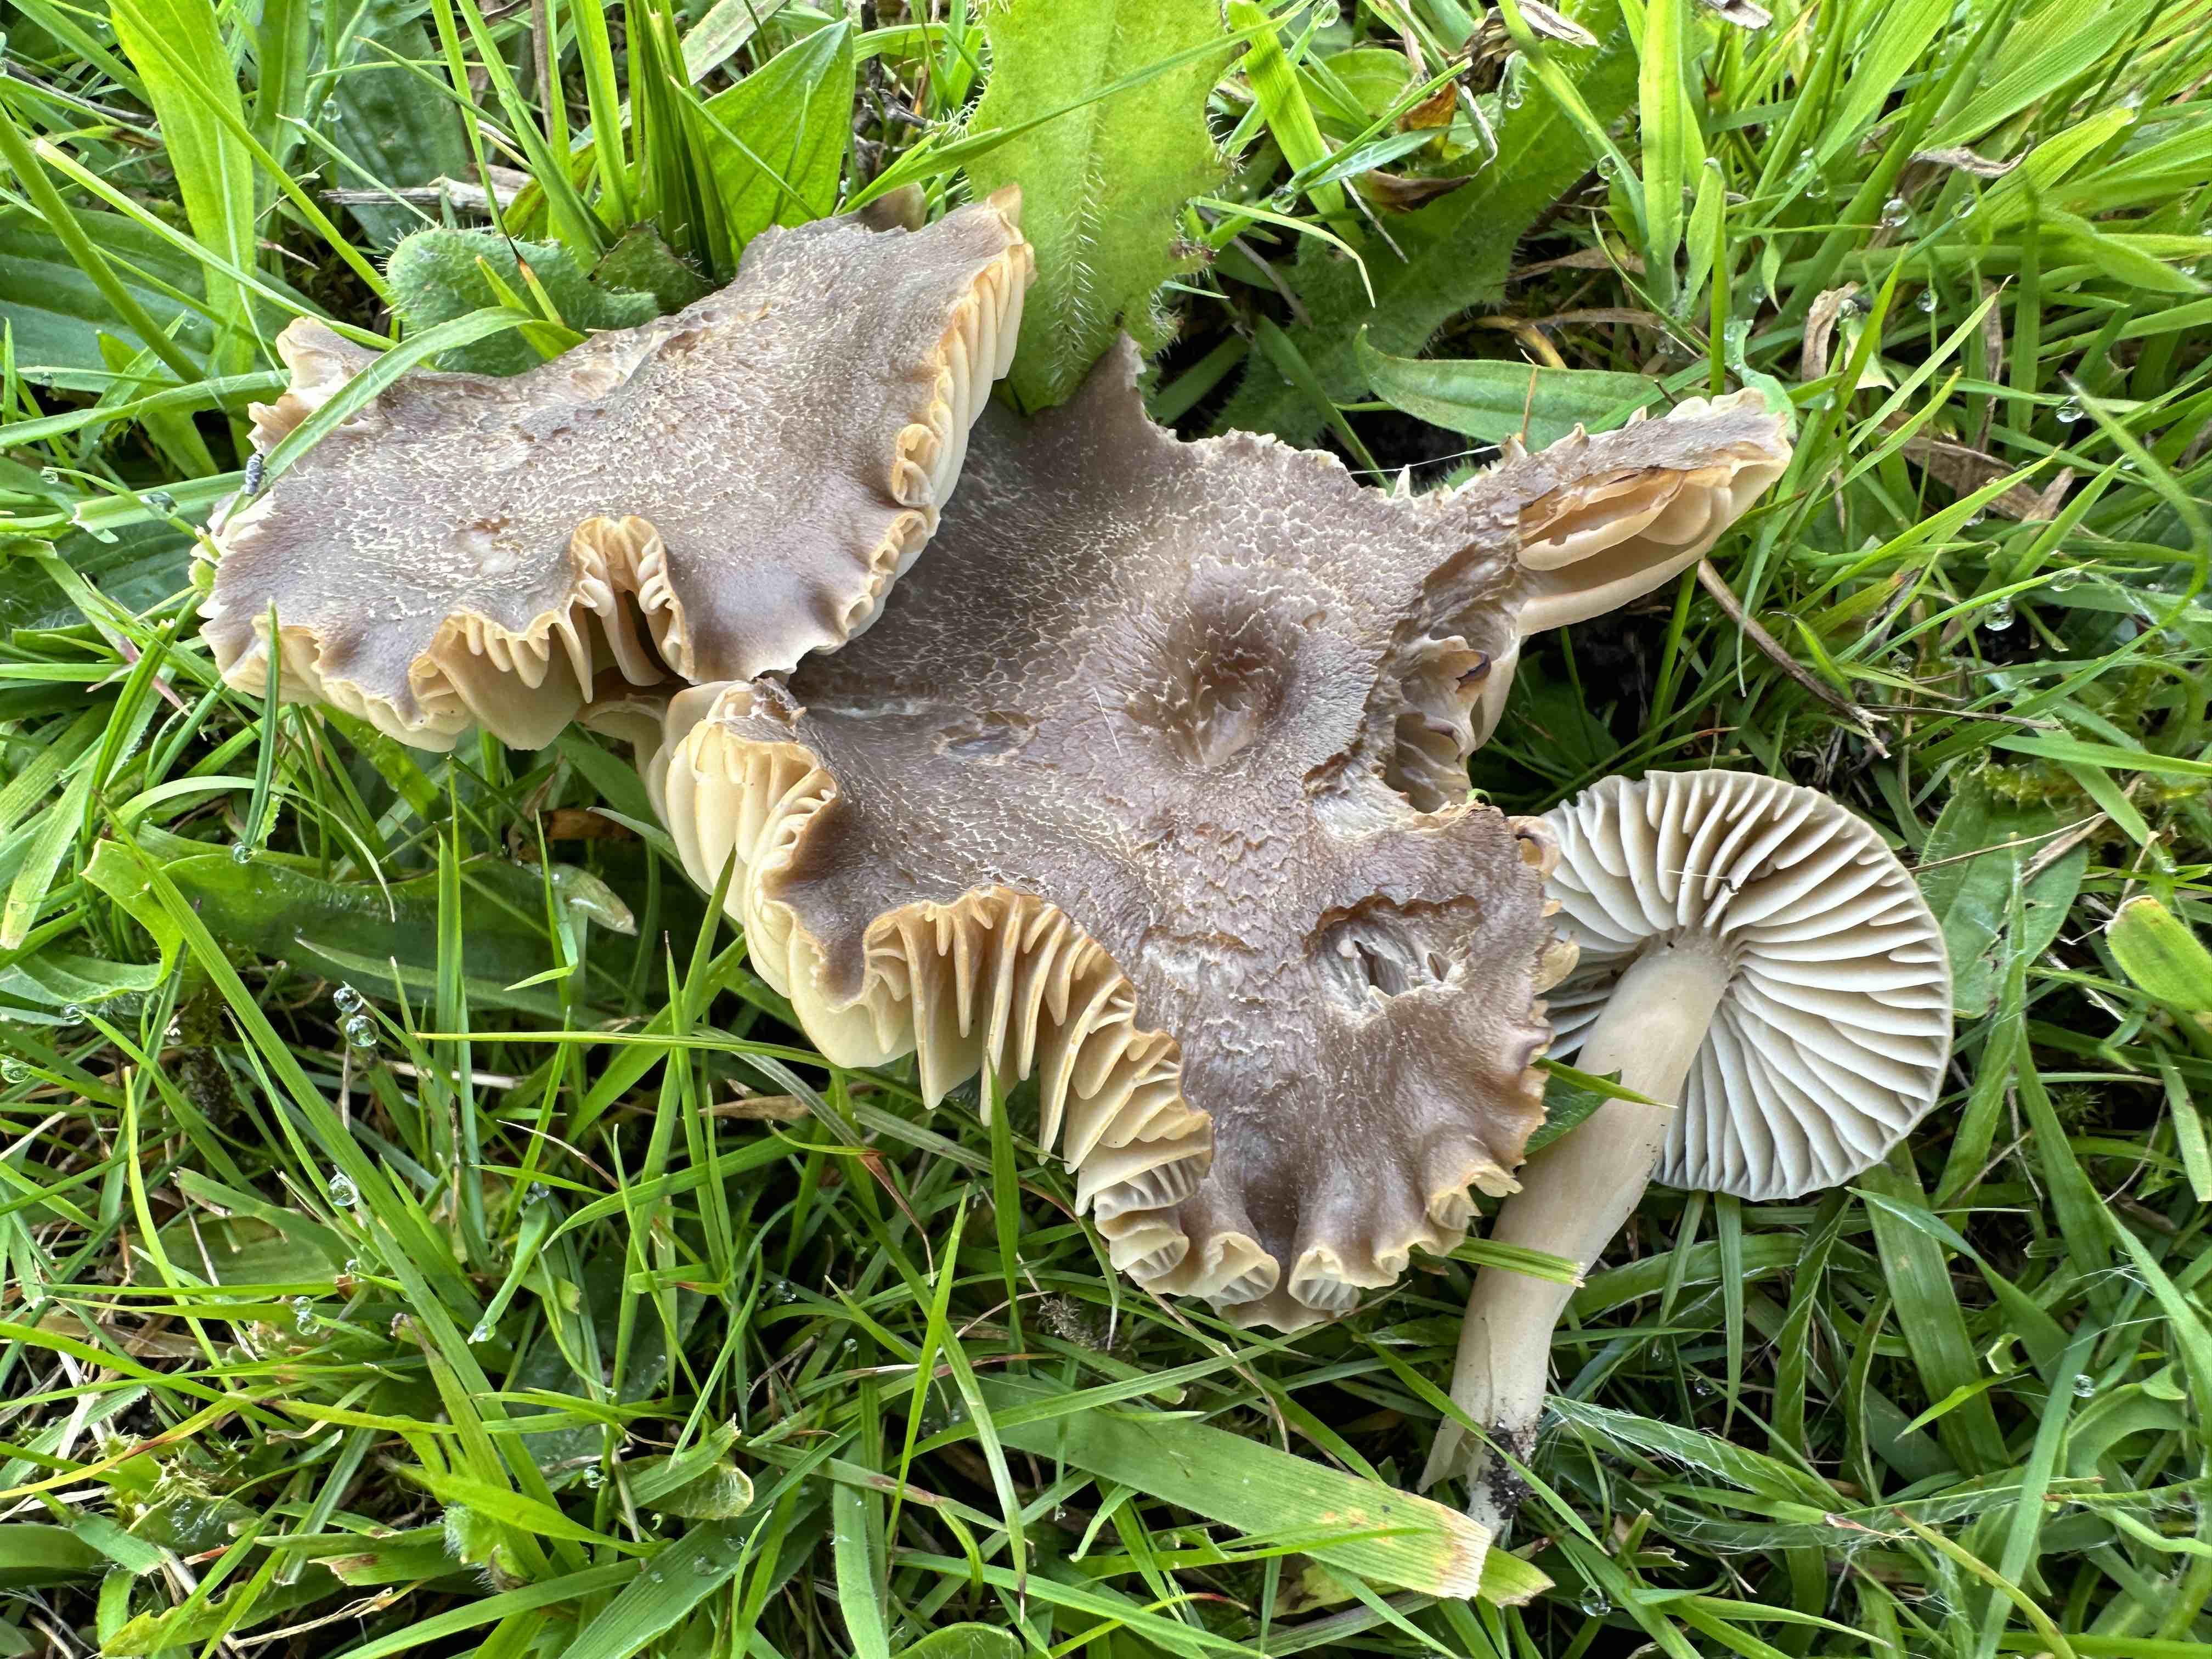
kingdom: Fungi
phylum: Basidiomycota
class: Agaricomycetes
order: Agaricales
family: Hygrophoraceae
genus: Neohygrocybe
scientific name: Neohygrocybe nitrata
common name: stinkende vokshat
